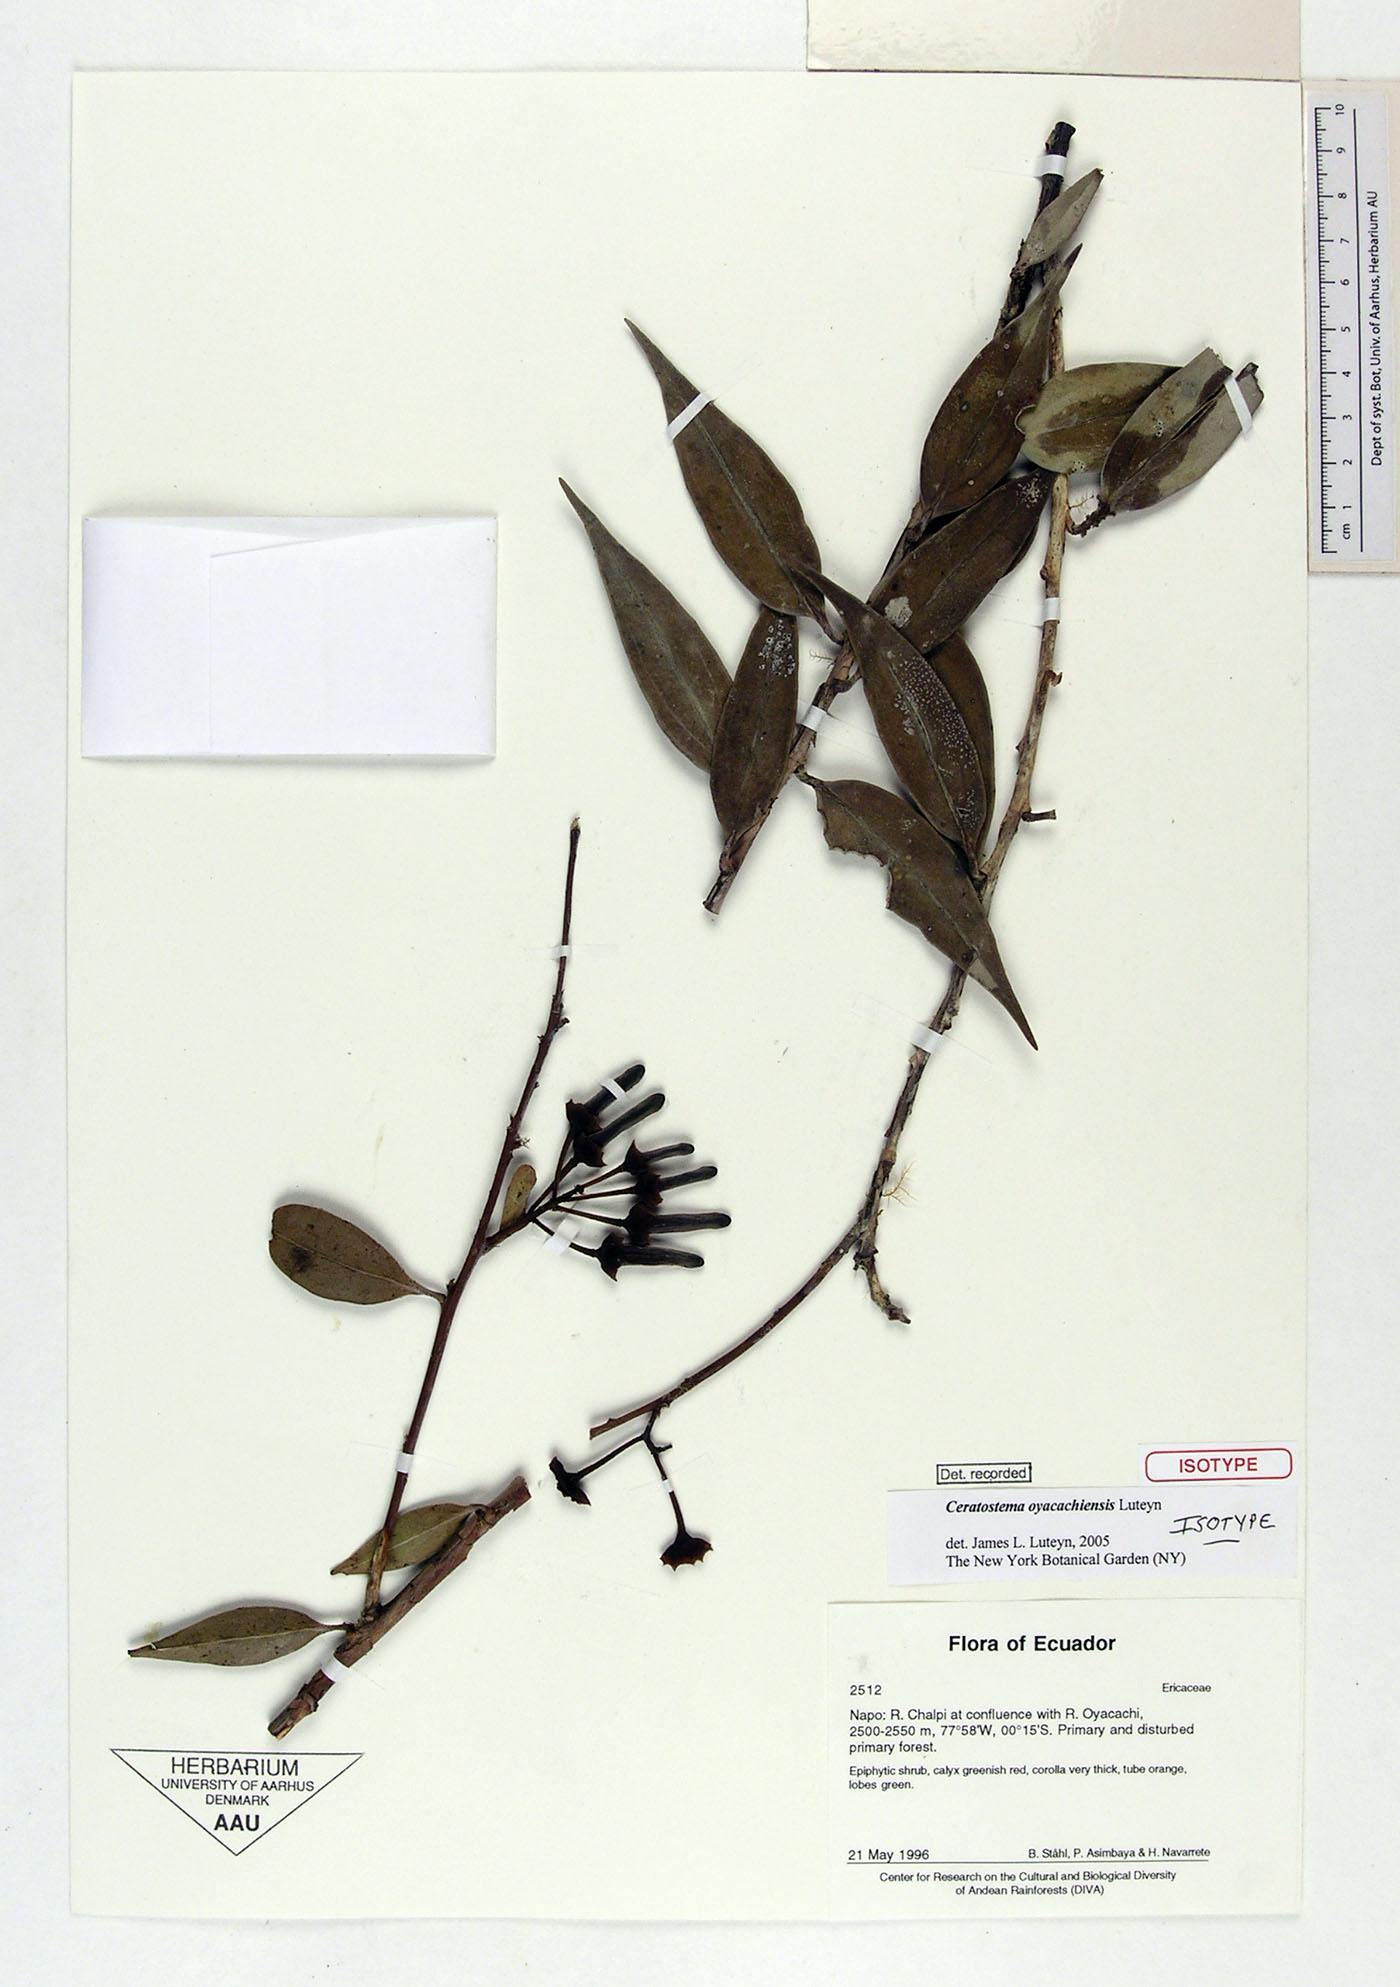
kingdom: Plantae
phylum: Tracheophyta
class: Magnoliopsida
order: Ericales
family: Ericaceae
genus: Ceratostema
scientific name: Ceratostema oyacachiensis
